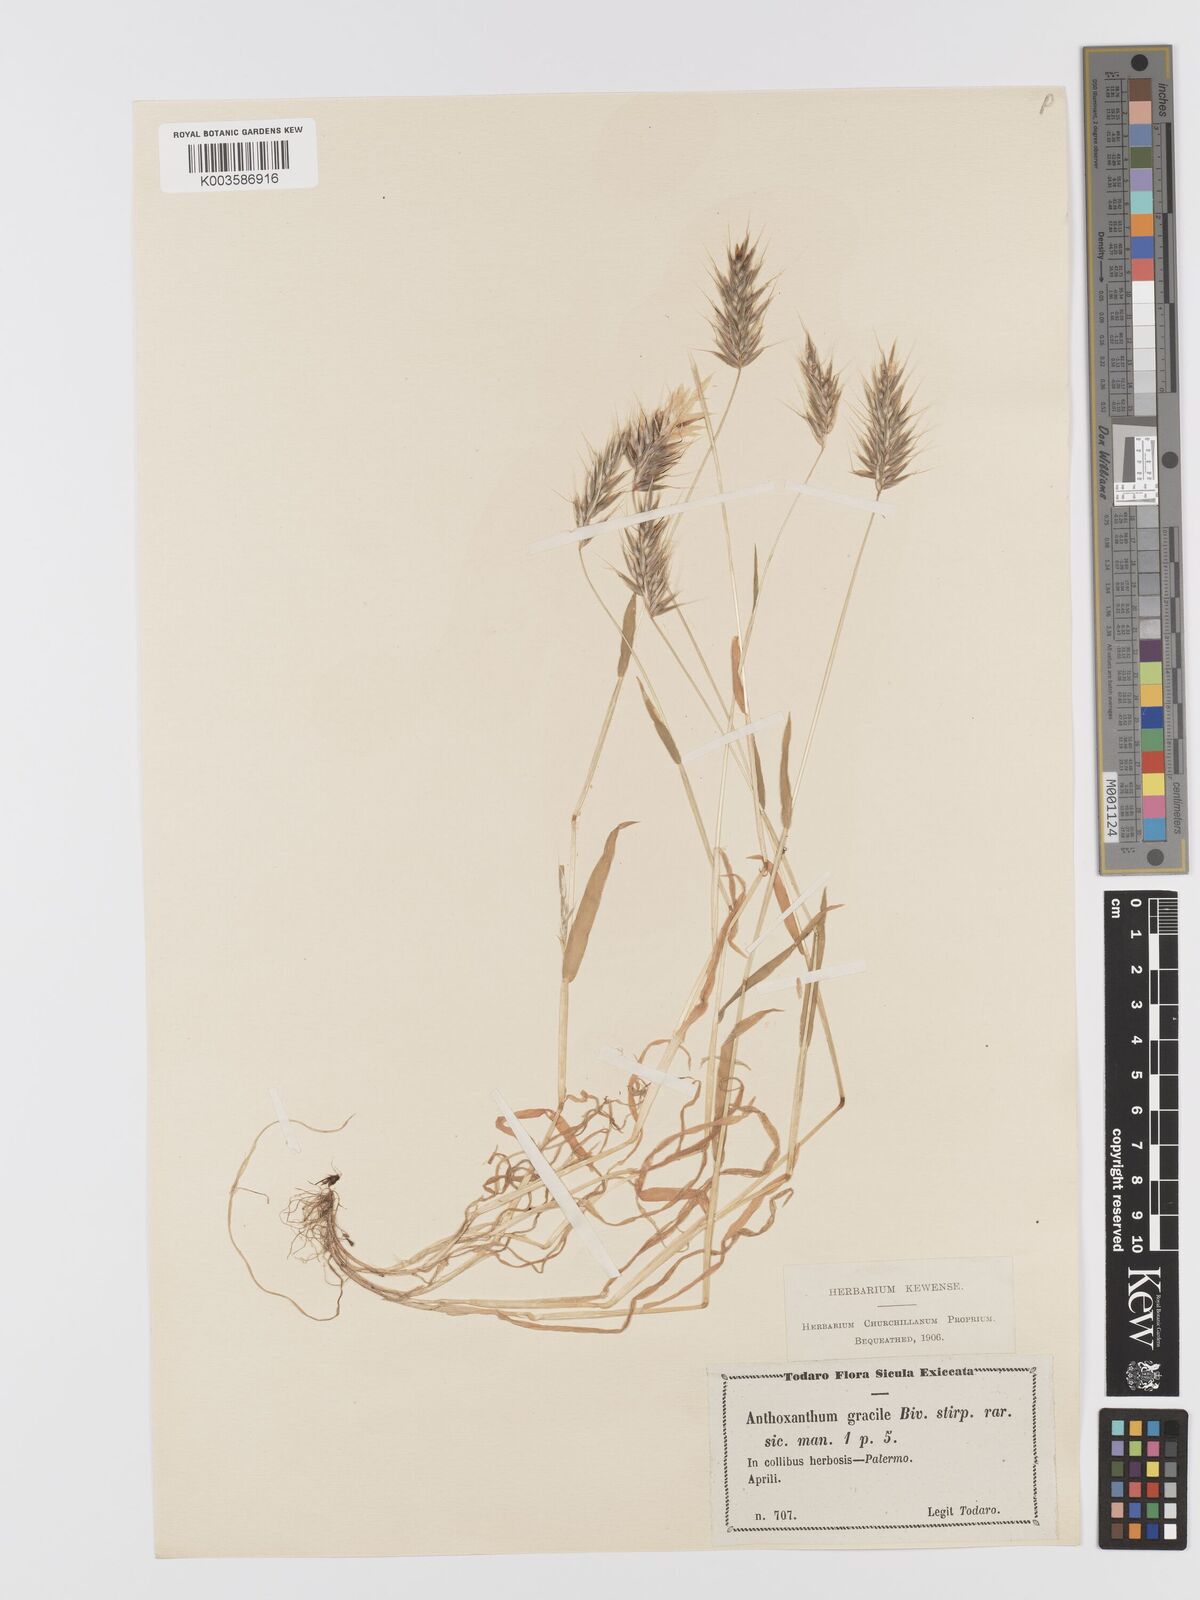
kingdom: Plantae
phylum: Tracheophyta
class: Liliopsida
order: Poales
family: Poaceae
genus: Anthoxanthum
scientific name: Anthoxanthum gracile
